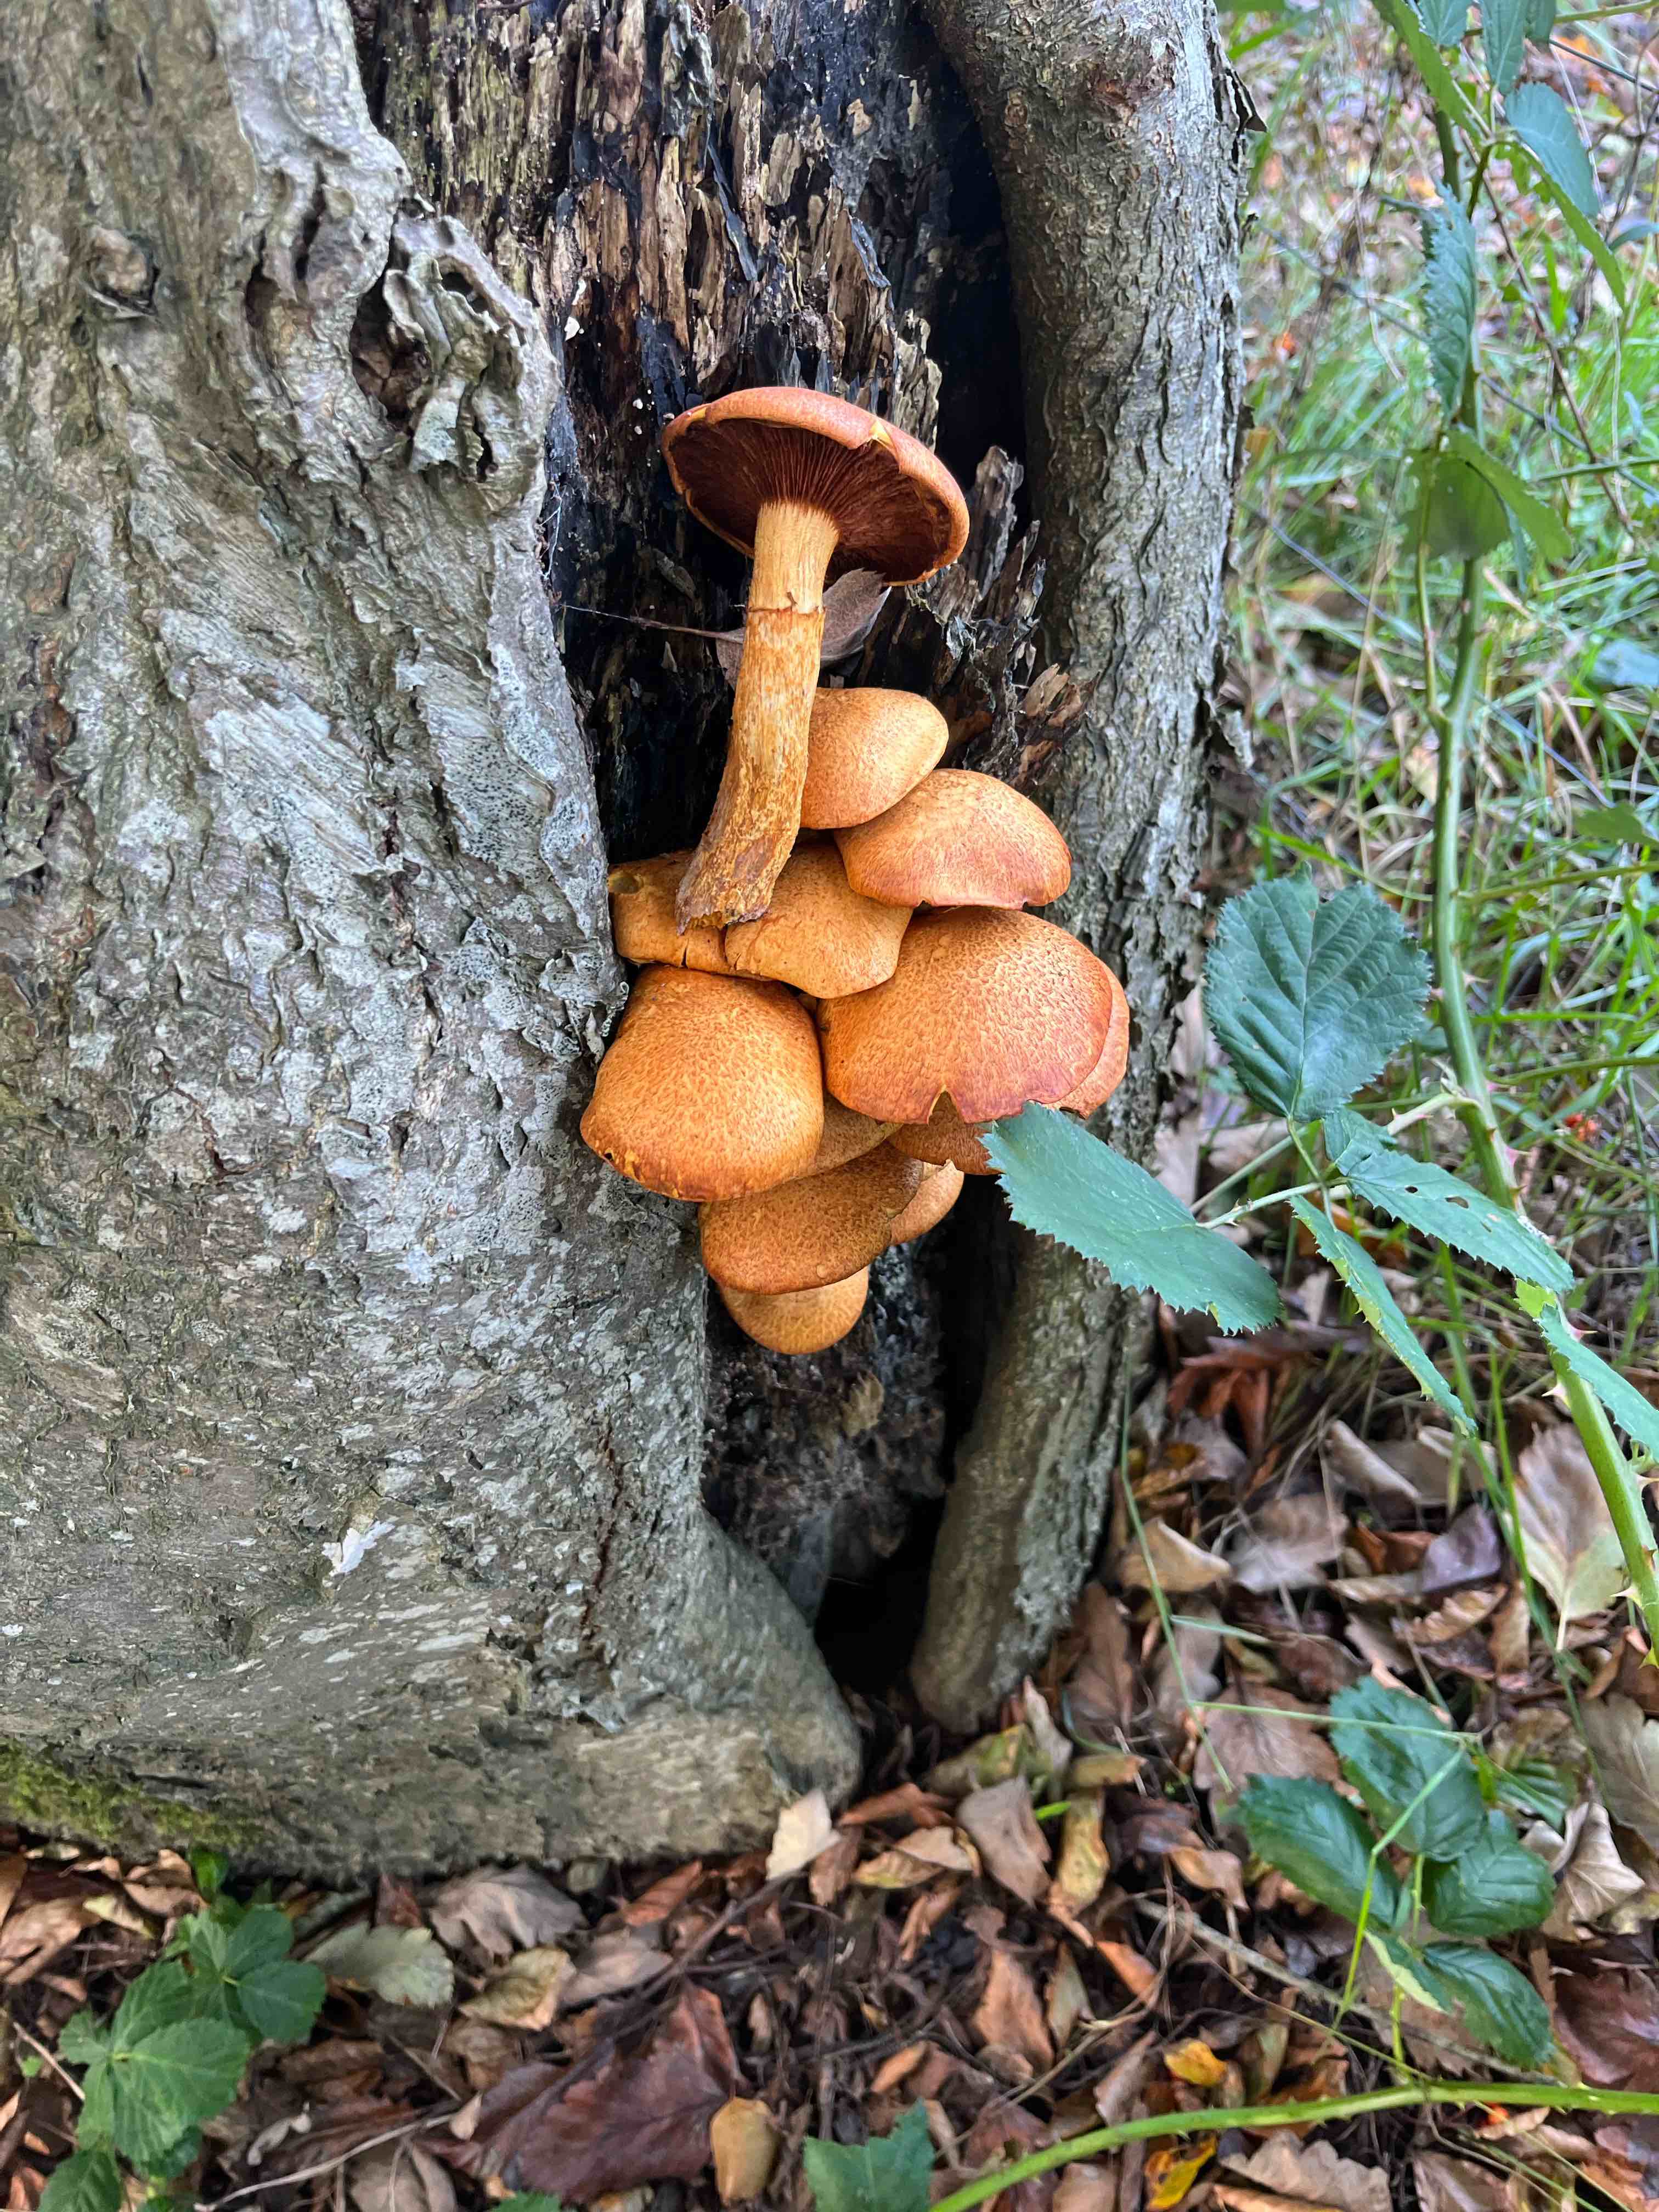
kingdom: Fungi
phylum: Basidiomycota
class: Agaricomycetes
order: Agaricales
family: Hymenogastraceae
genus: Gymnopilus
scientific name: Gymnopilus spectabilis
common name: fibret flammehat
